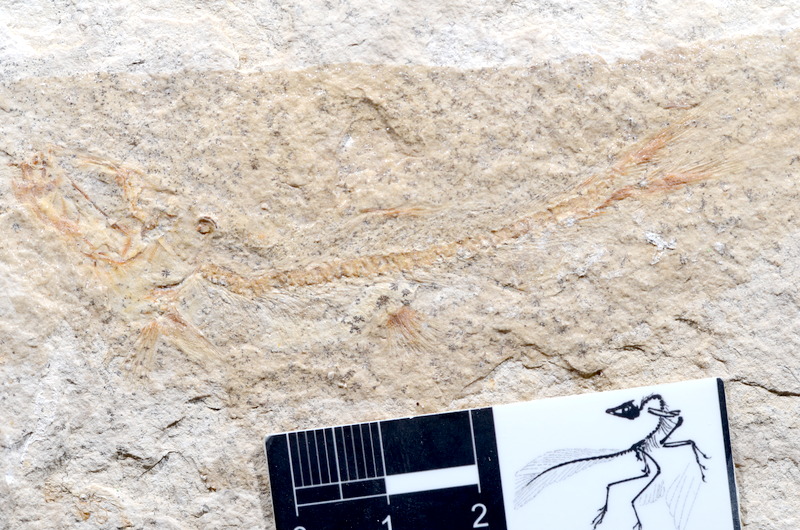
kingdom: Animalia
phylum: Chordata
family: Ascalaboidae
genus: Tharsis
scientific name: Tharsis dubius
